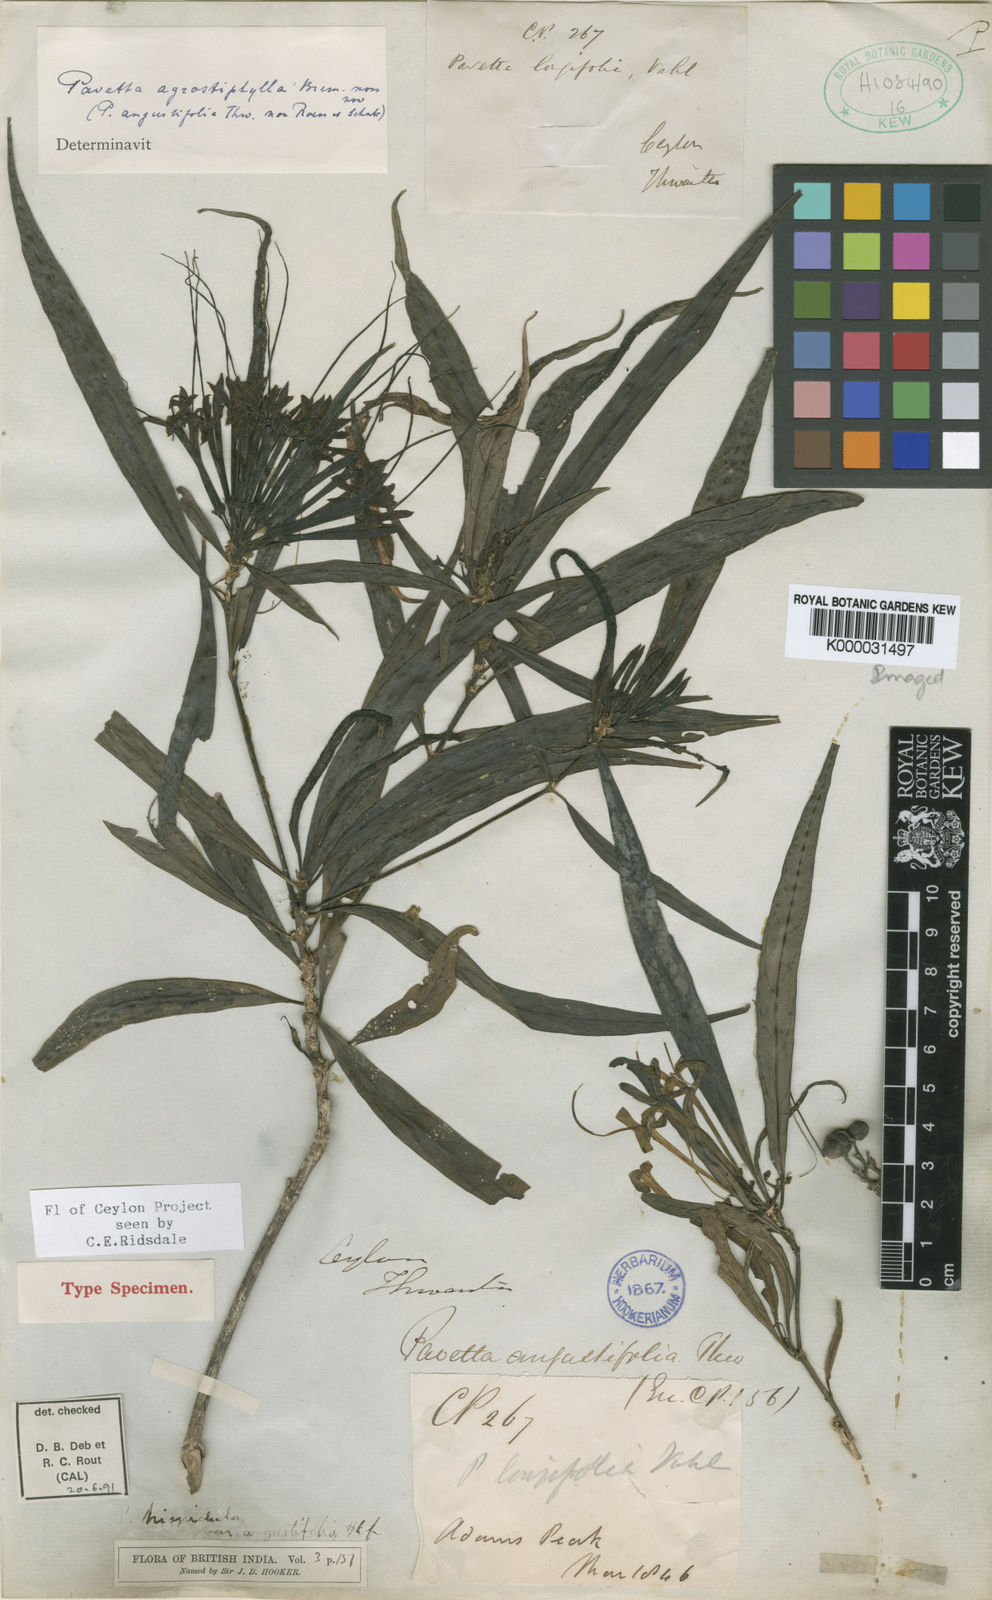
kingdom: Plantae
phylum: Tracheophyta
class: Magnoliopsida
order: Gentianales
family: Rubiaceae
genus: Pavetta
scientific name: Pavetta agrostiphylla
